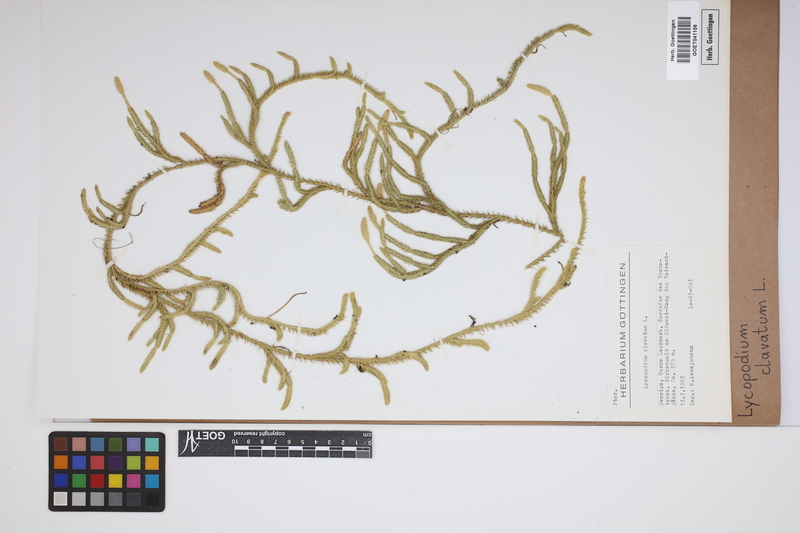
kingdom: Plantae
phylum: Tracheophyta
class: Lycopodiopsida
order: Lycopodiales
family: Lycopodiaceae
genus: Lycopodium
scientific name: Lycopodium clavatum
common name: Stag's-horn clubmoss
